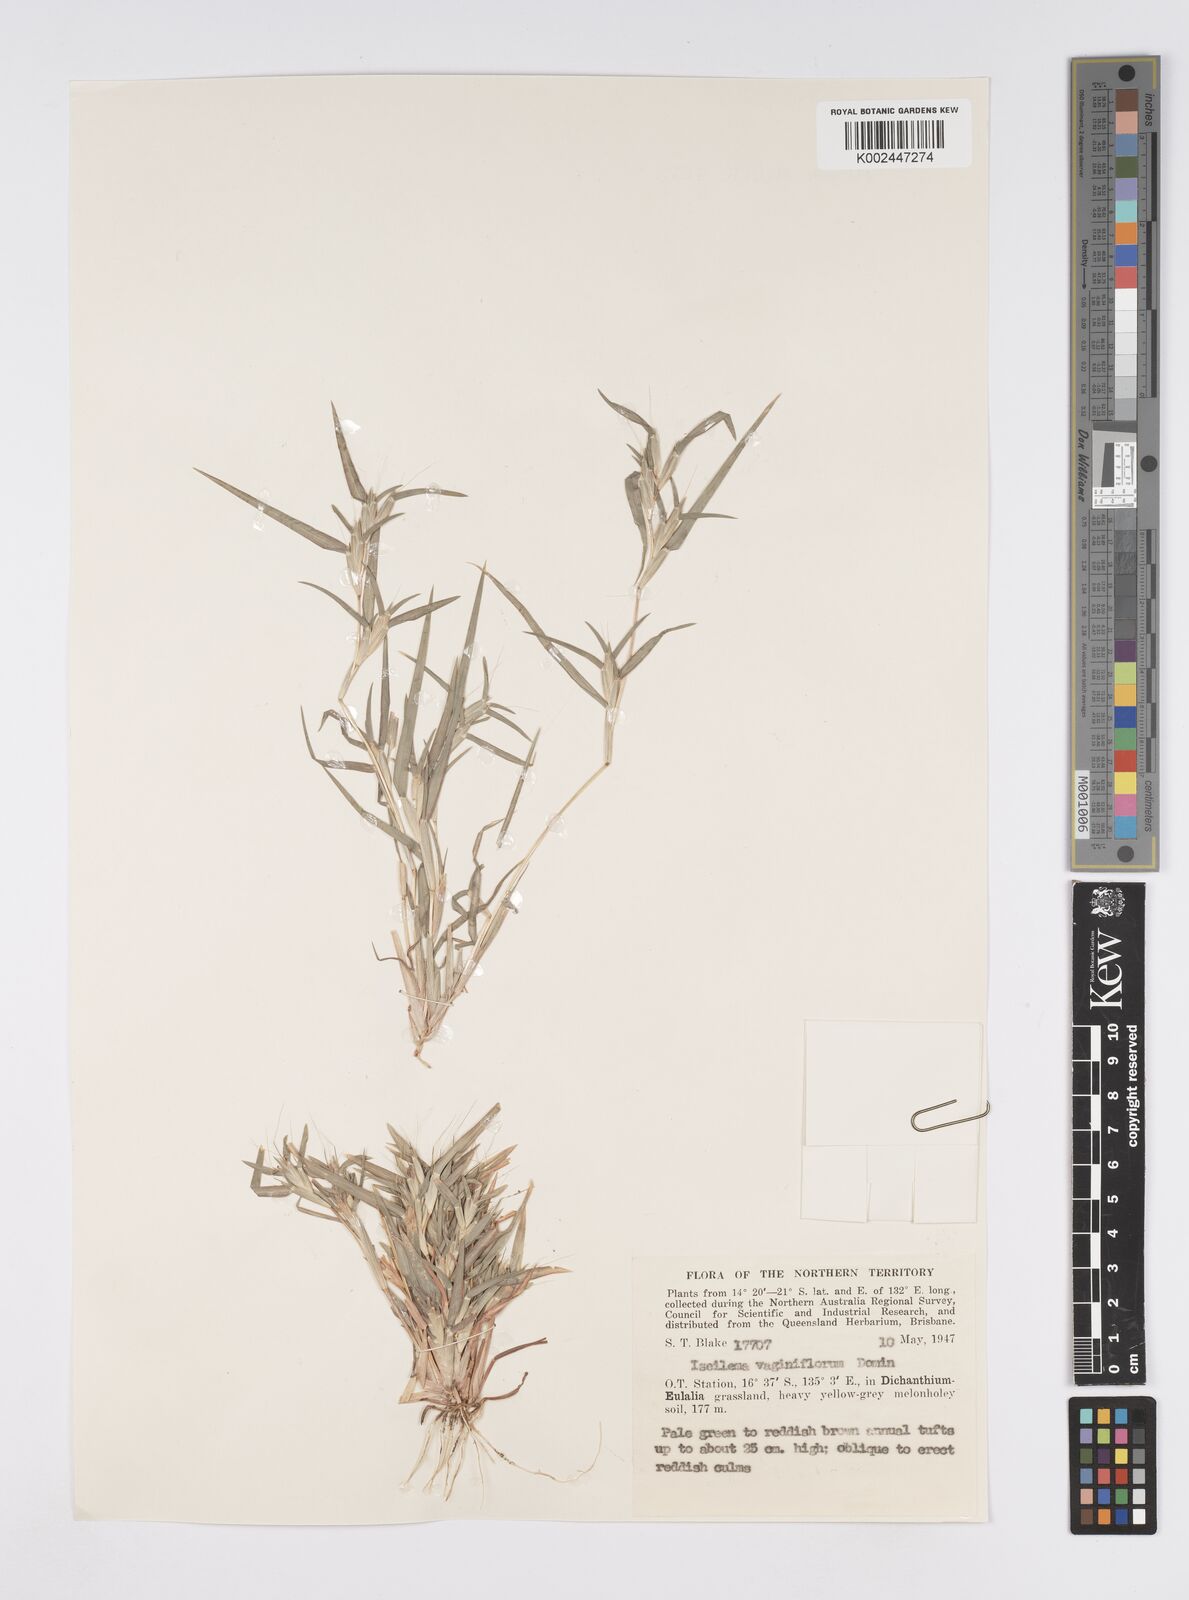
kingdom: Plantae
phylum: Tracheophyta
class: Liliopsida
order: Poales
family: Poaceae
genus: Iseilema
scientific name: Iseilema vaginiflorum
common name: Red flinders grass
